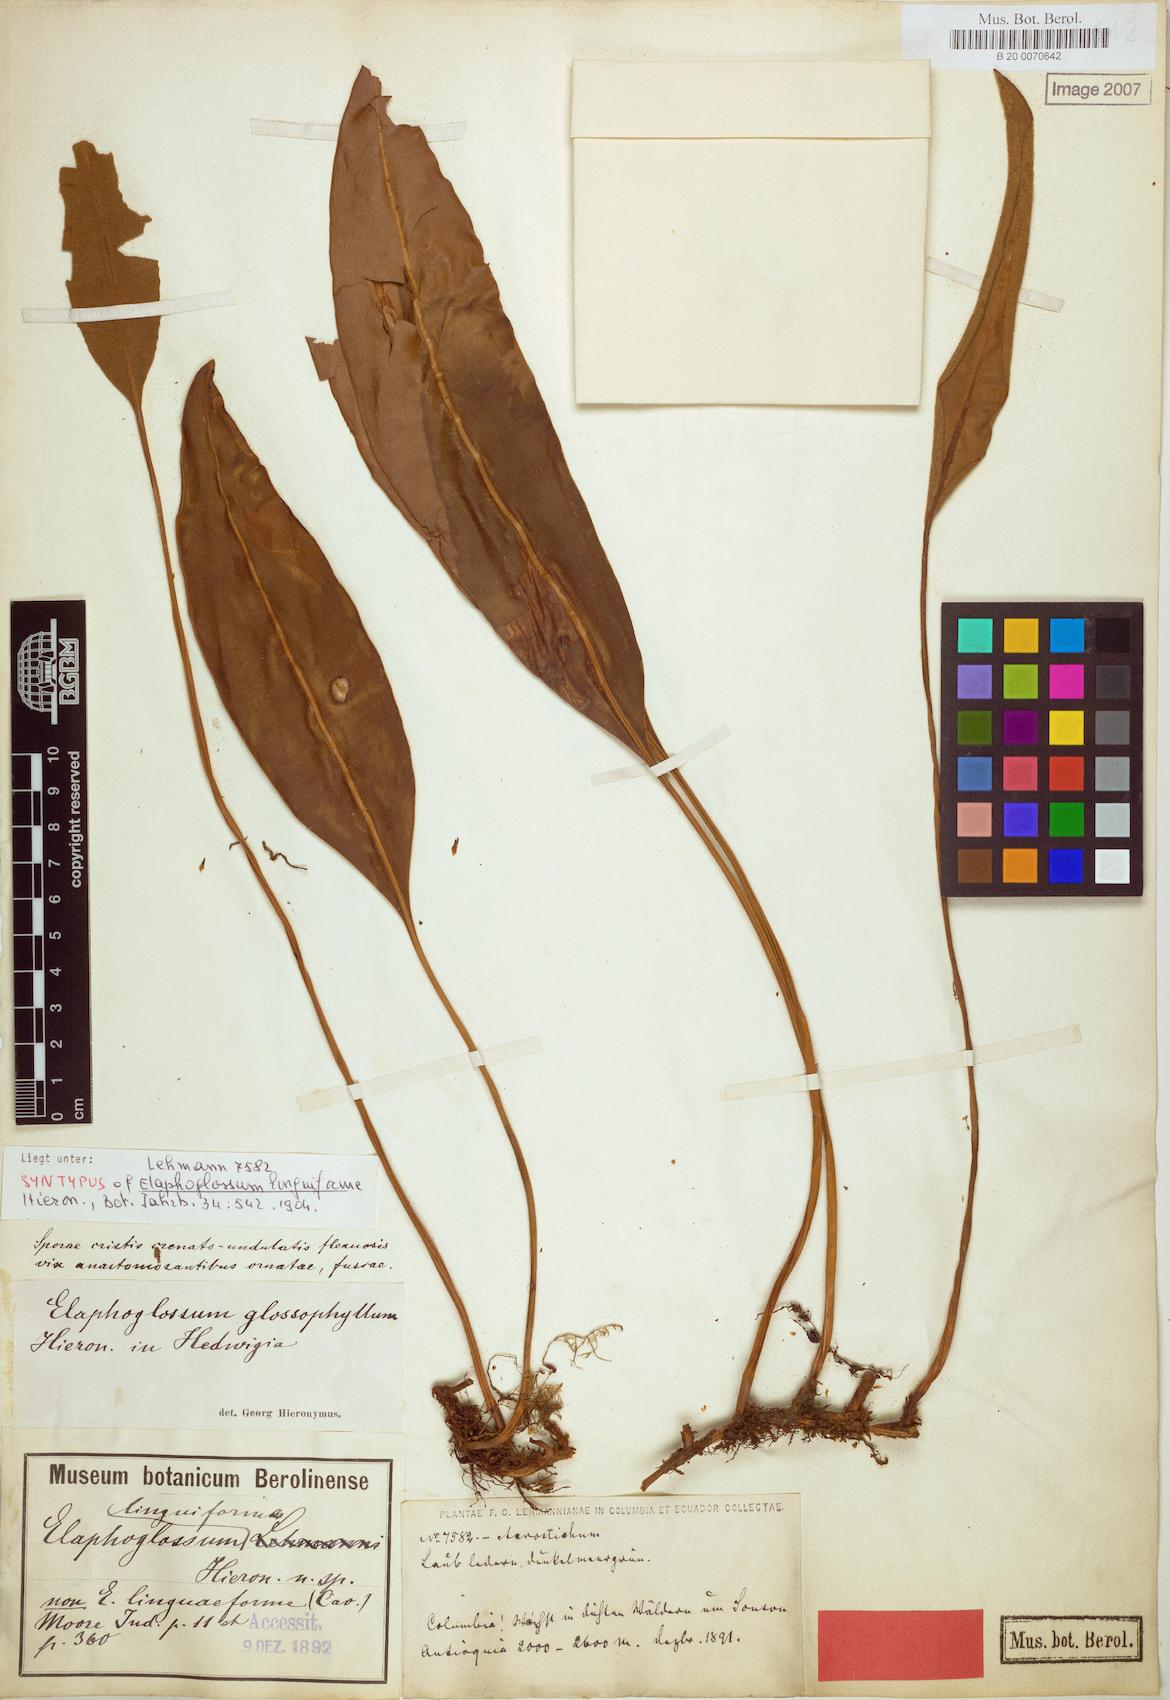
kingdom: Plantae
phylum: Tracheophyta
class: Polypodiopsida
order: Polypodiales
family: Dryopteridaceae
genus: Elaphoglossum
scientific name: Elaphoglossum glossophyllum
